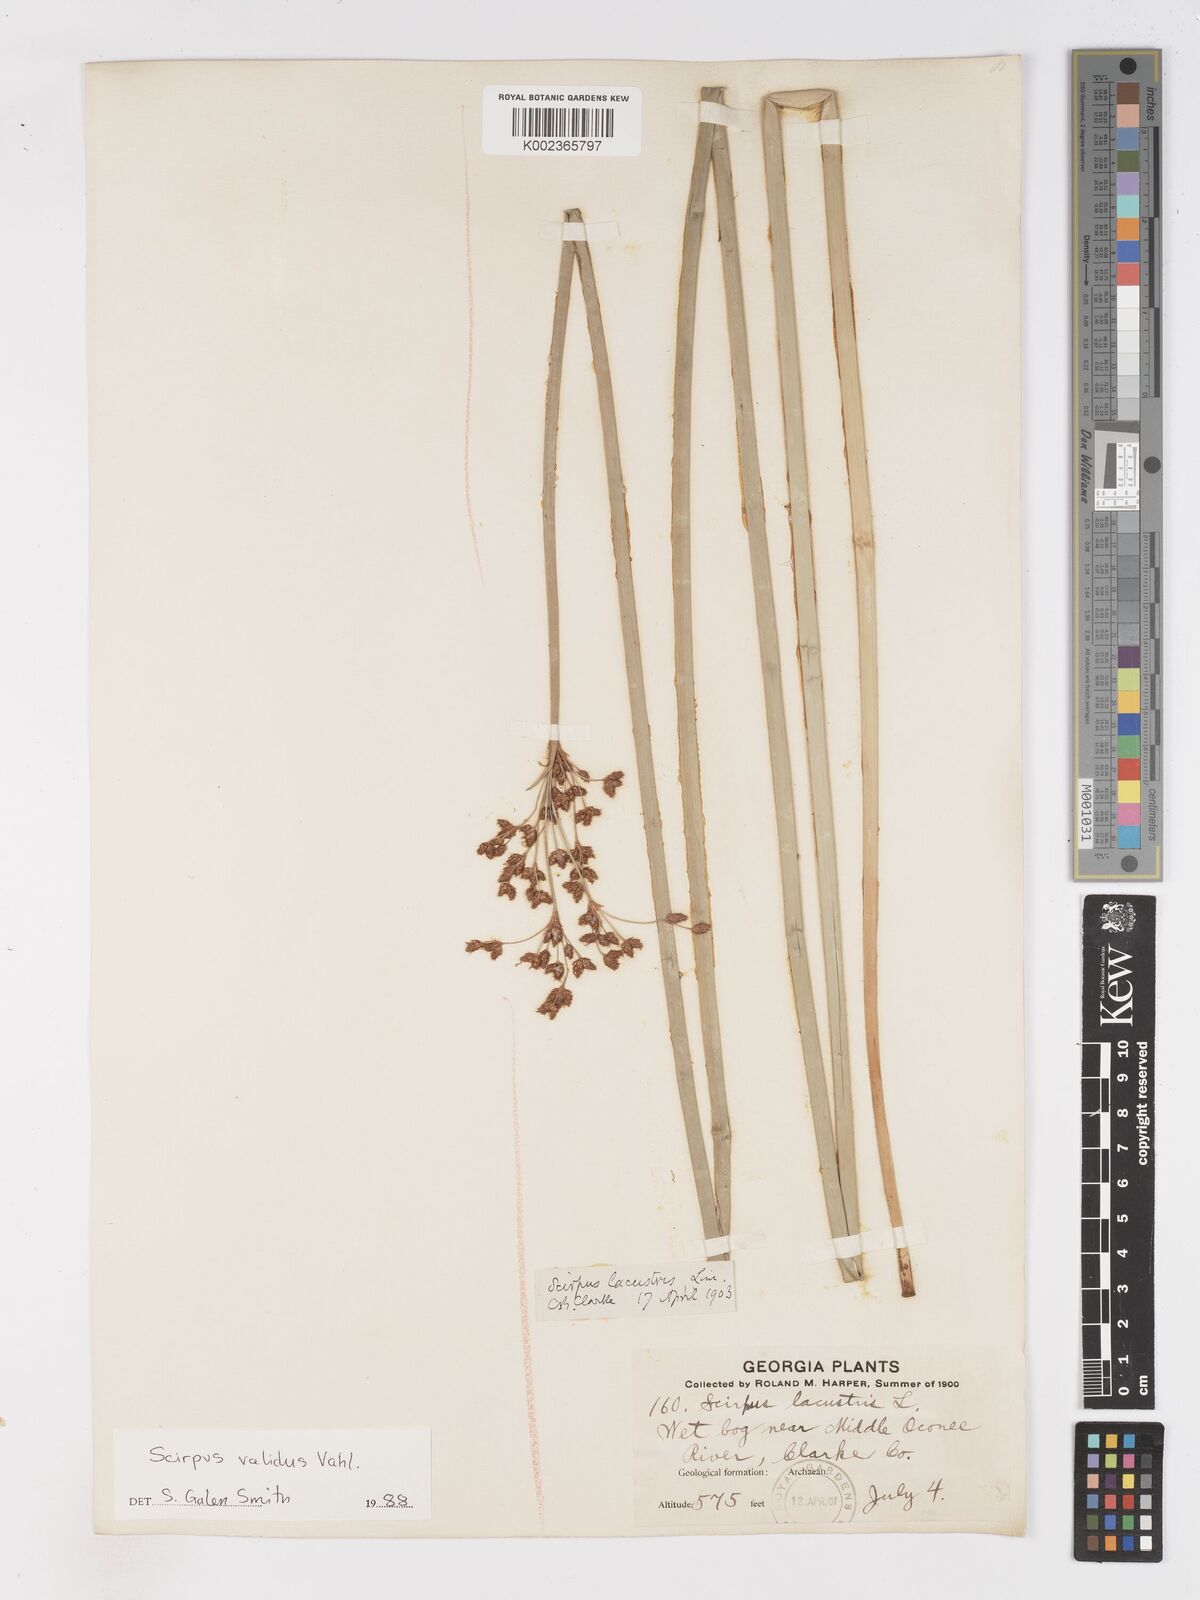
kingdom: Plantae
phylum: Tracheophyta
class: Liliopsida
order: Poales
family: Cyperaceae
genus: Schoenoplectus
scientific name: Schoenoplectus lacustris
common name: Common club-rush
